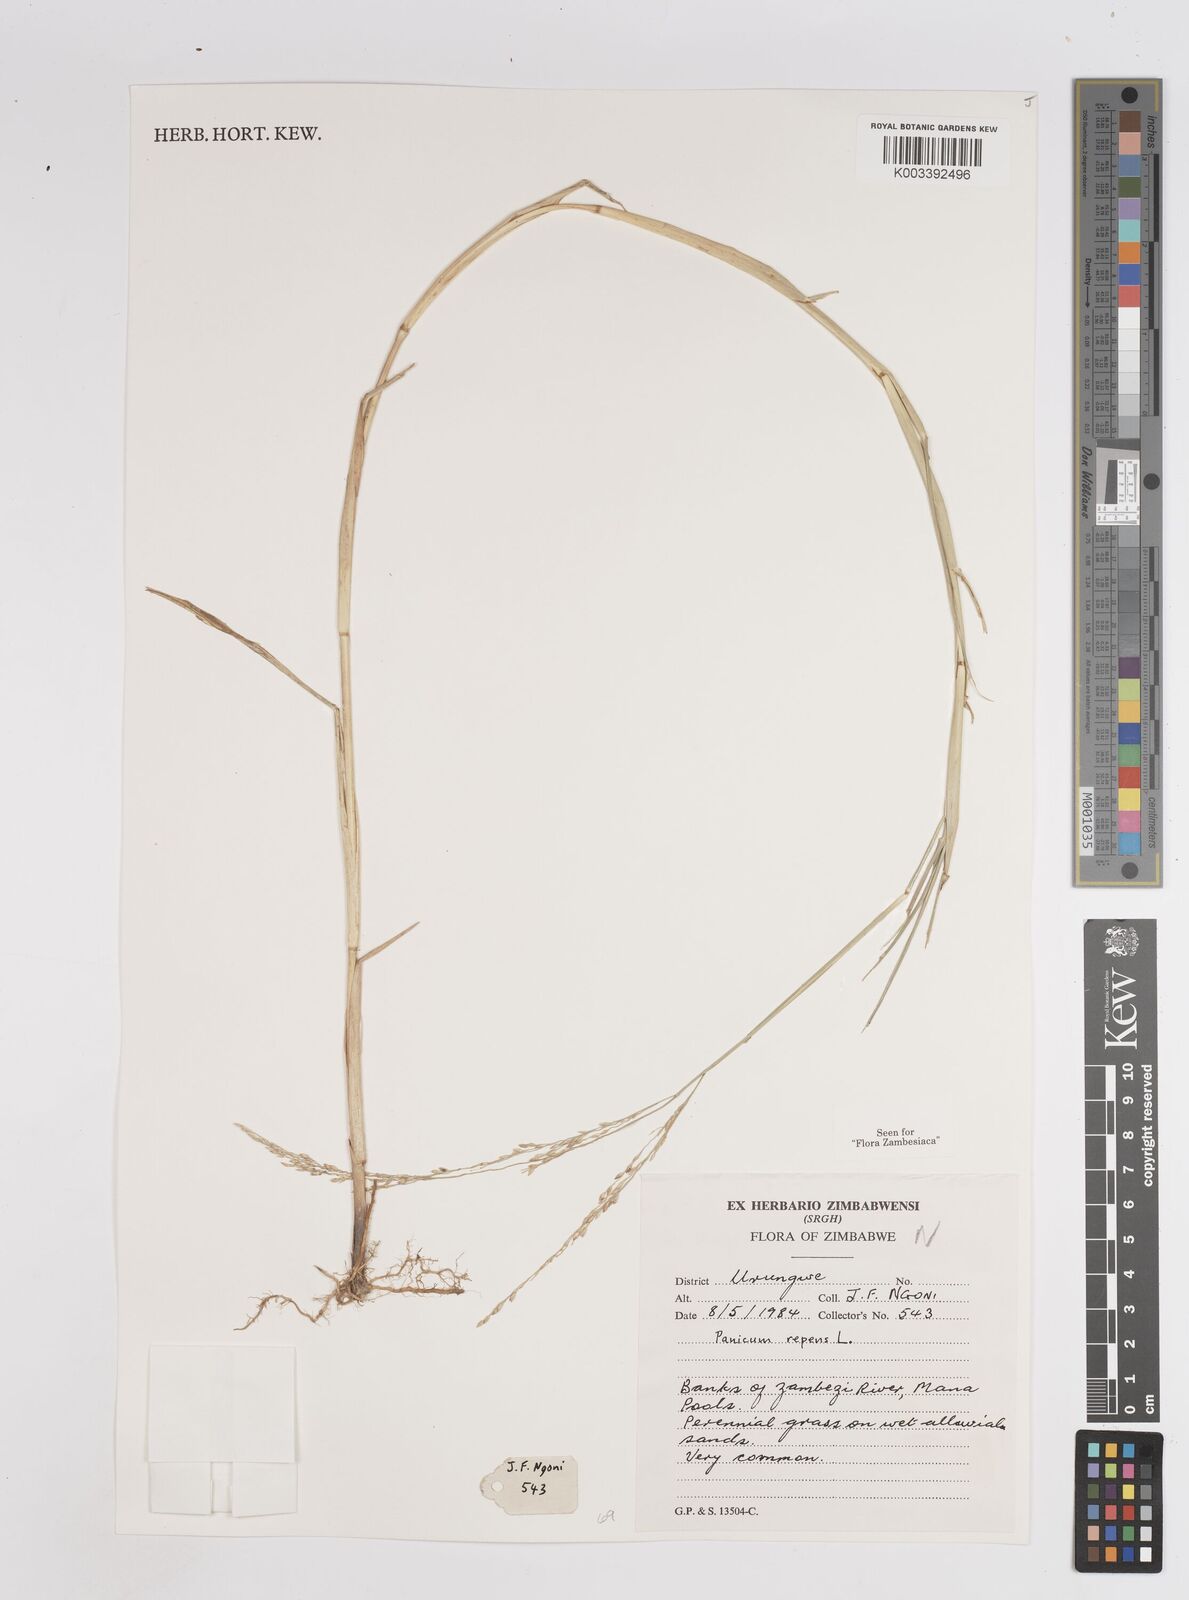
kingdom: Plantae
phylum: Tracheophyta
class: Liliopsida
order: Poales
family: Poaceae
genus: Panicum
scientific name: Panicum repens
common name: Torpedo grass
